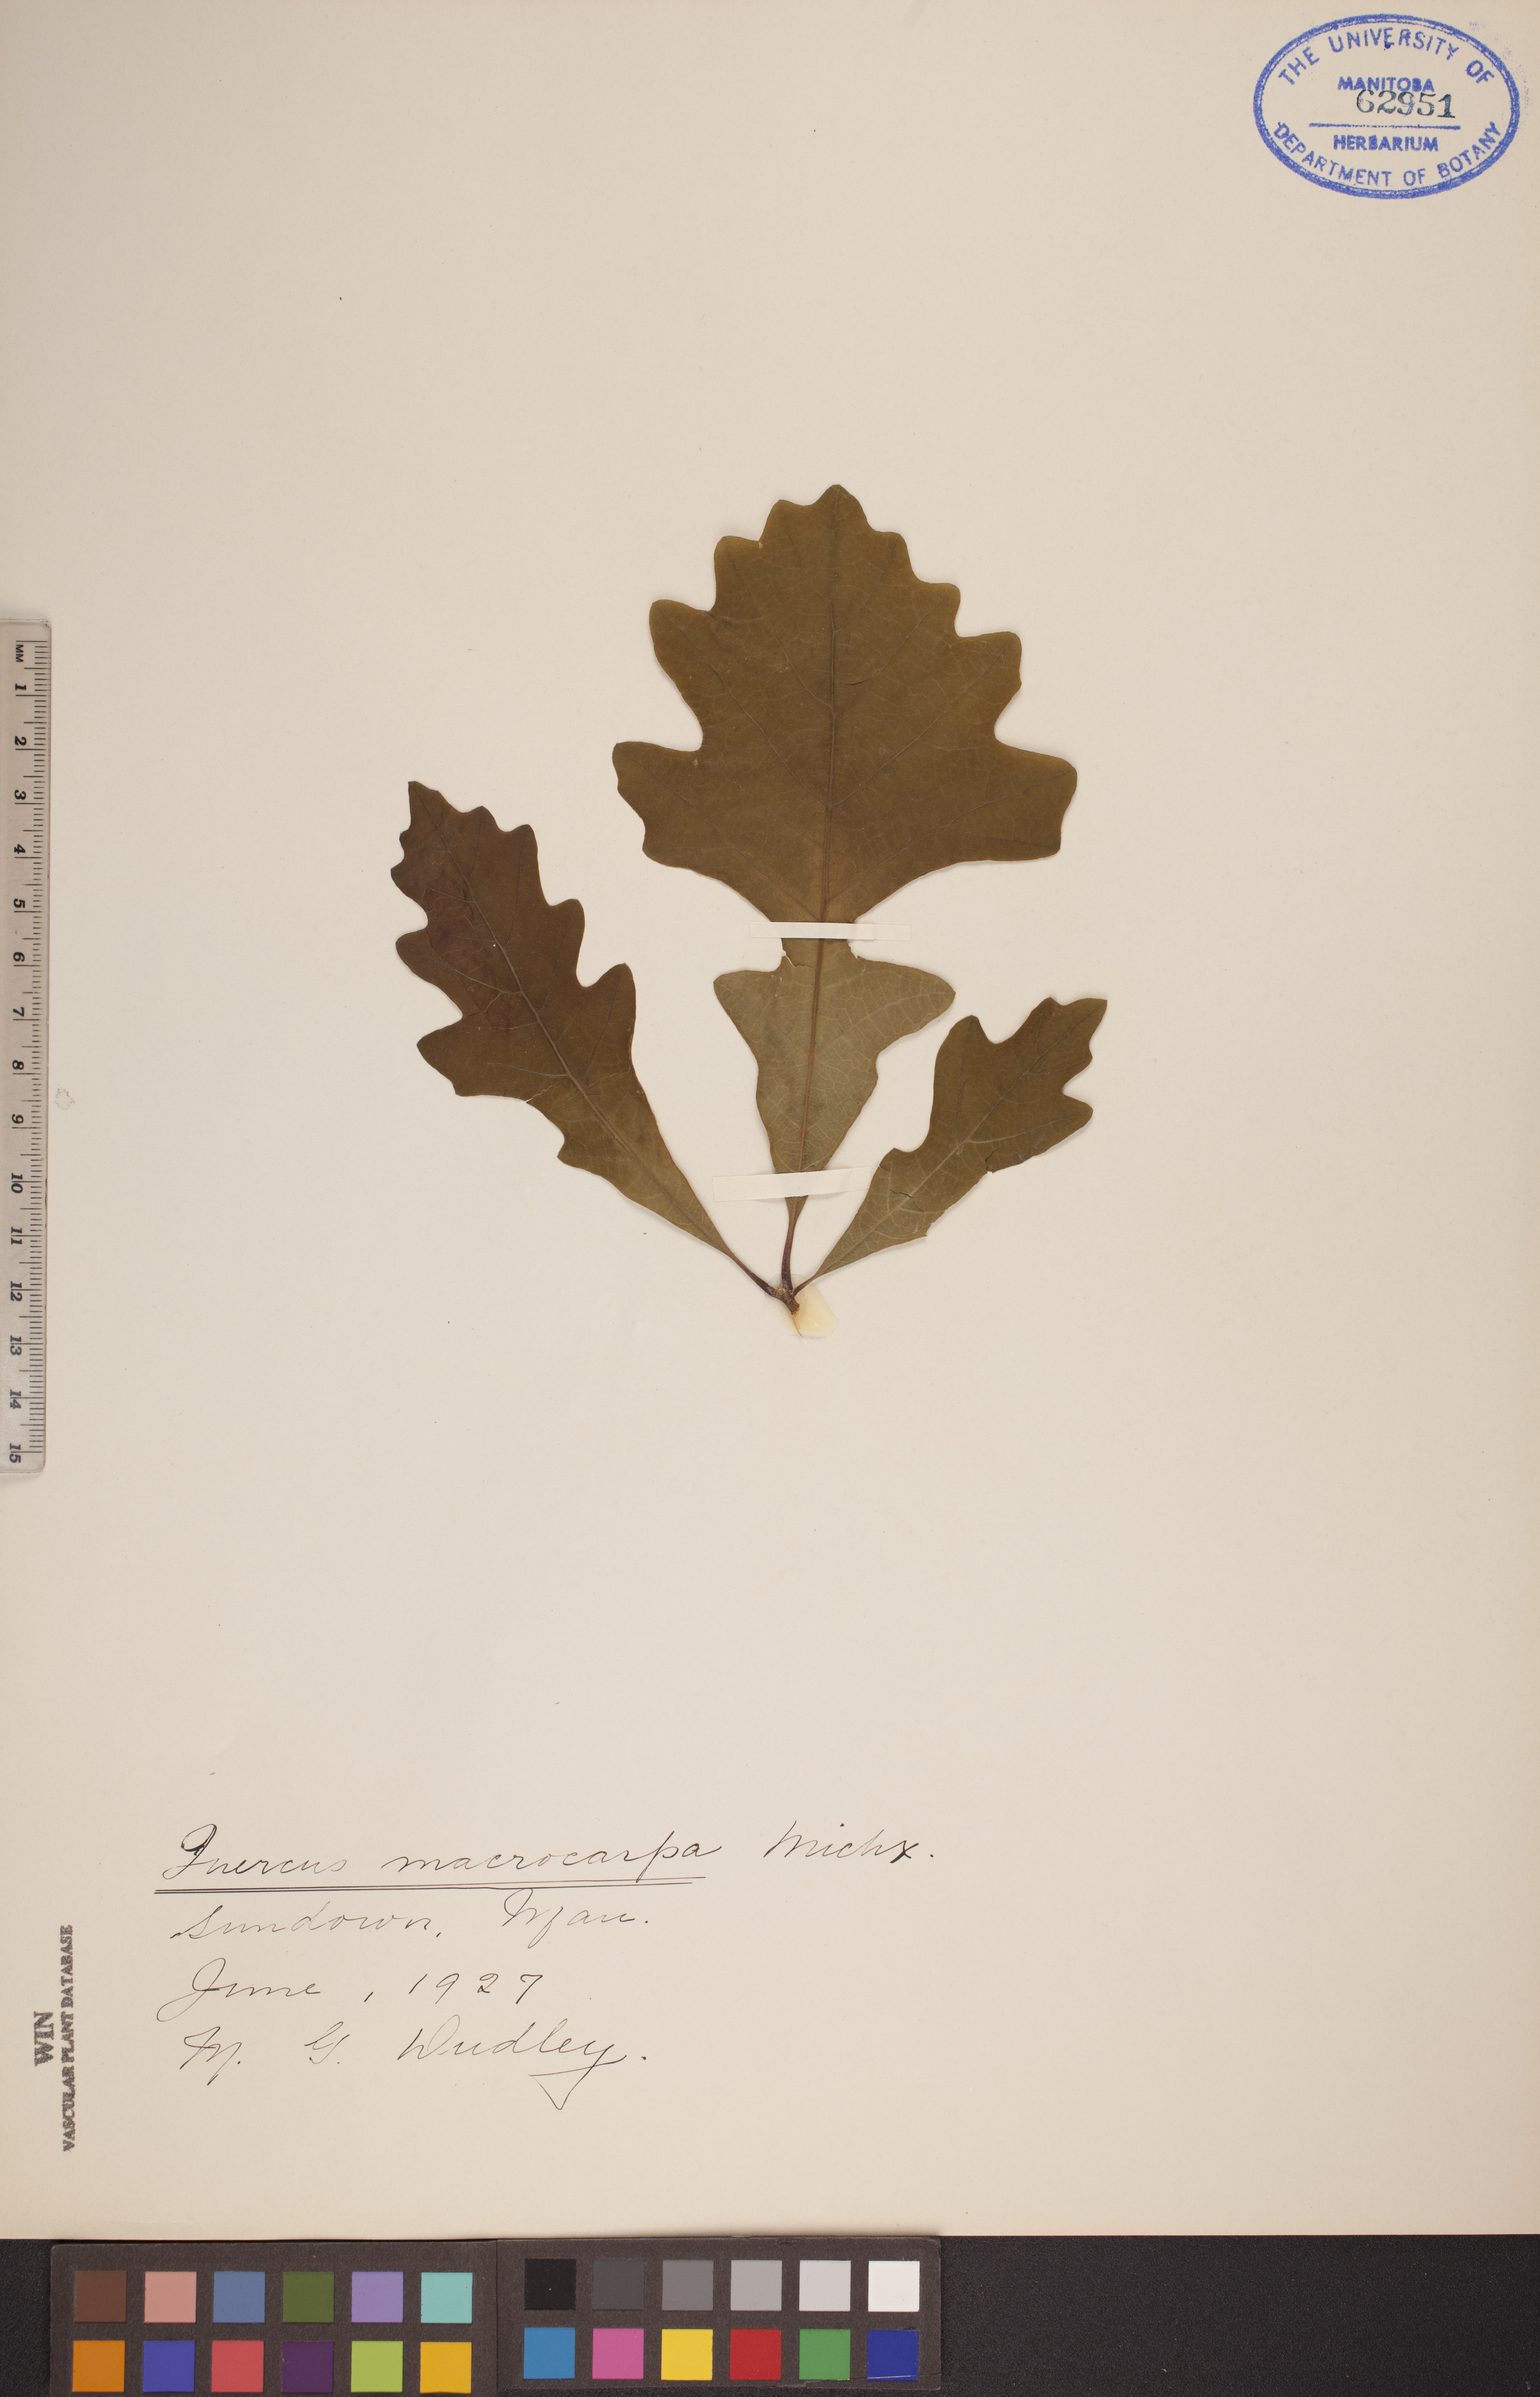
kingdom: Plantae
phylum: Tracheophyta
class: Magnoliopsida
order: Fagales
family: Fagaceae
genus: Quercus
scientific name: Quercus macrocarpa
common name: Bur oak
